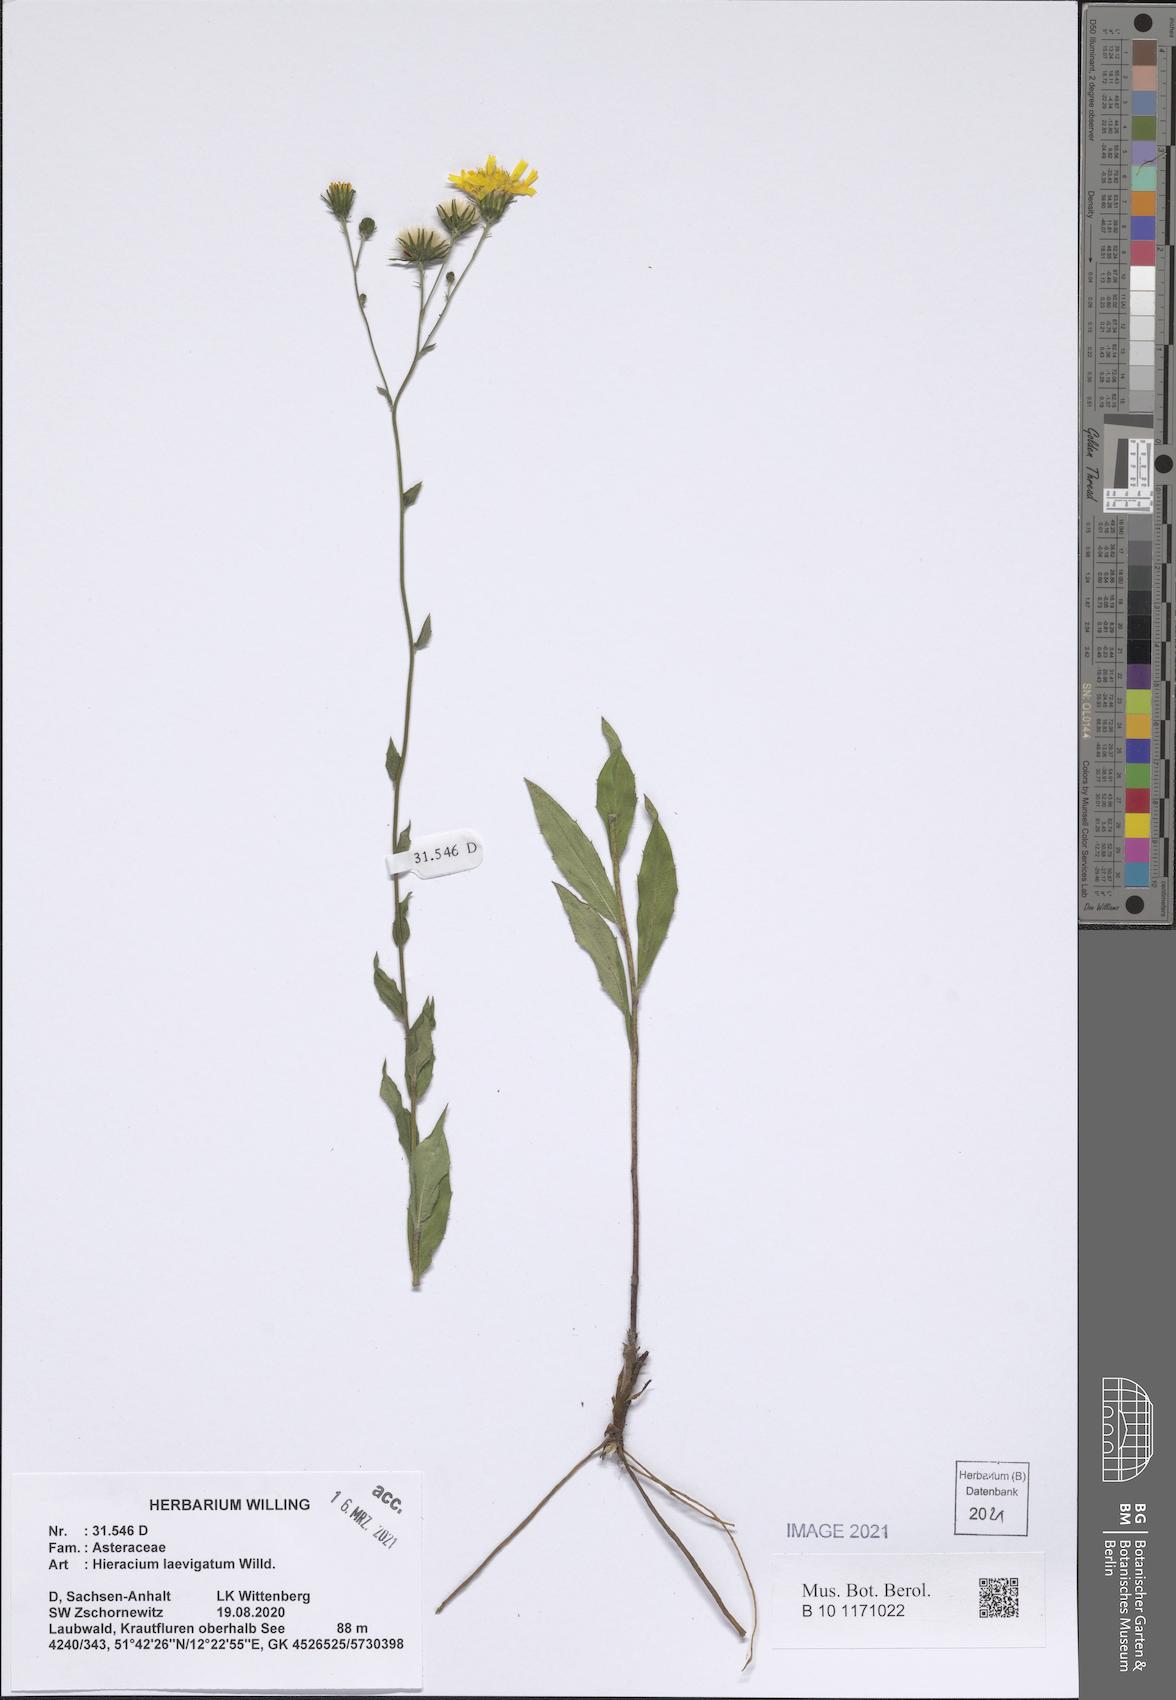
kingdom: Plantae
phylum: Tracheophyta
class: Magnoliopsida
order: Asterales
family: Asteraceae
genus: Hieracium
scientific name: Hieracium laevigatum
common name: Smooth hawkweed
